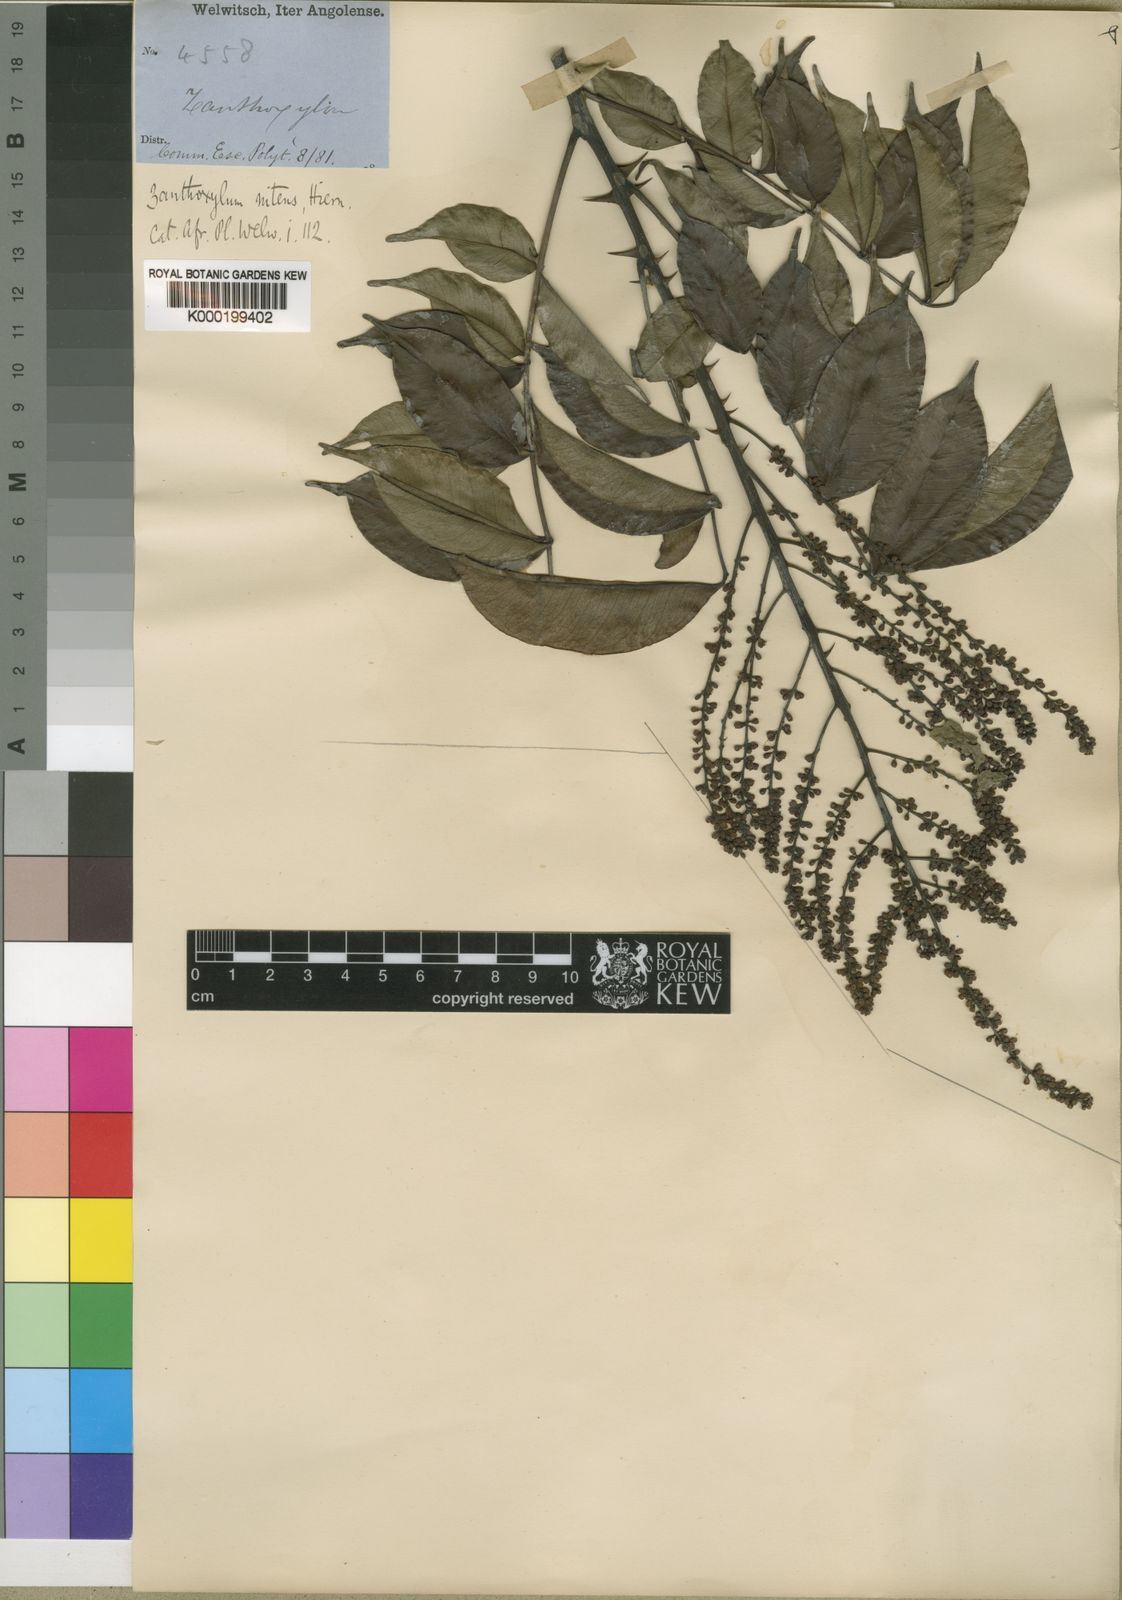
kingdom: Plantae
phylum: Tracheophyta
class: Magnoliopsida
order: Sapindales
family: Rutaceae
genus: Zanthoxylum
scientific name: Zanthoxylum leprieurii
